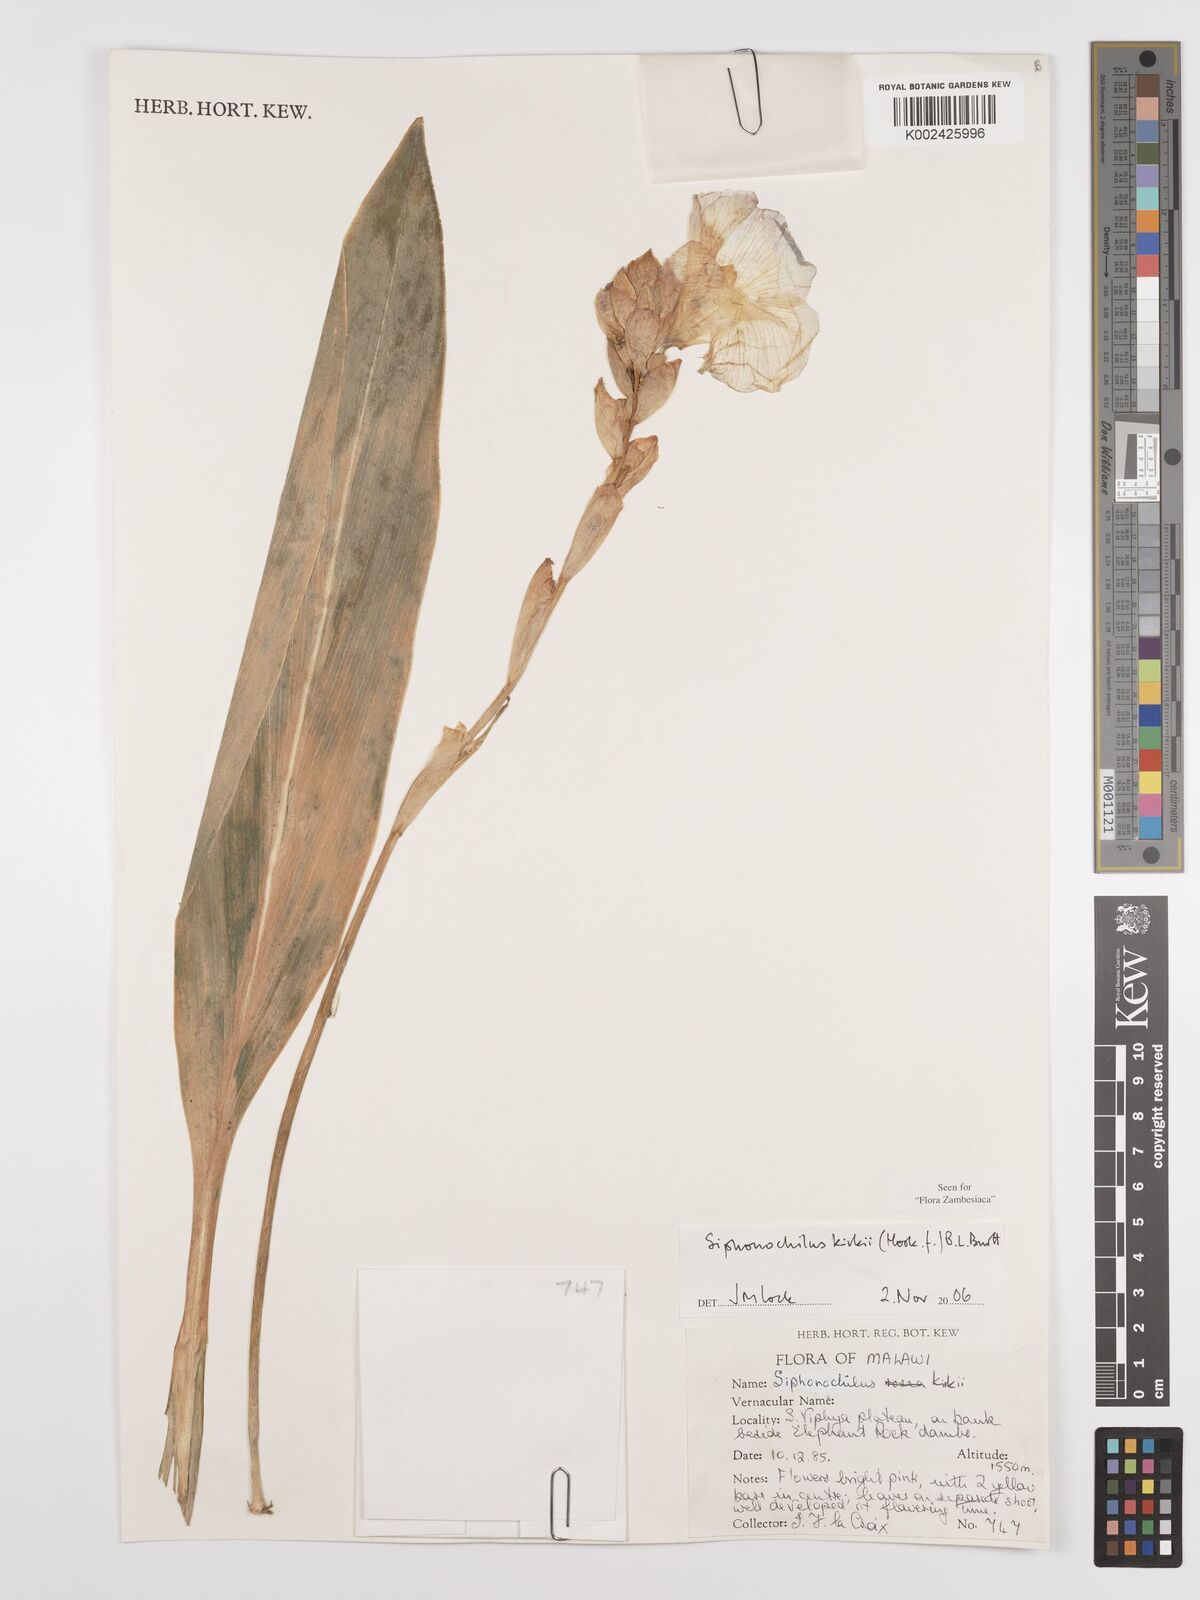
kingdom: Plantae
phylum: Tracheophyta
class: Liliopsida
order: Zingiberales
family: Zingiberaceae
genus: Siphonochilus
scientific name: Siphonochilus kirkii
